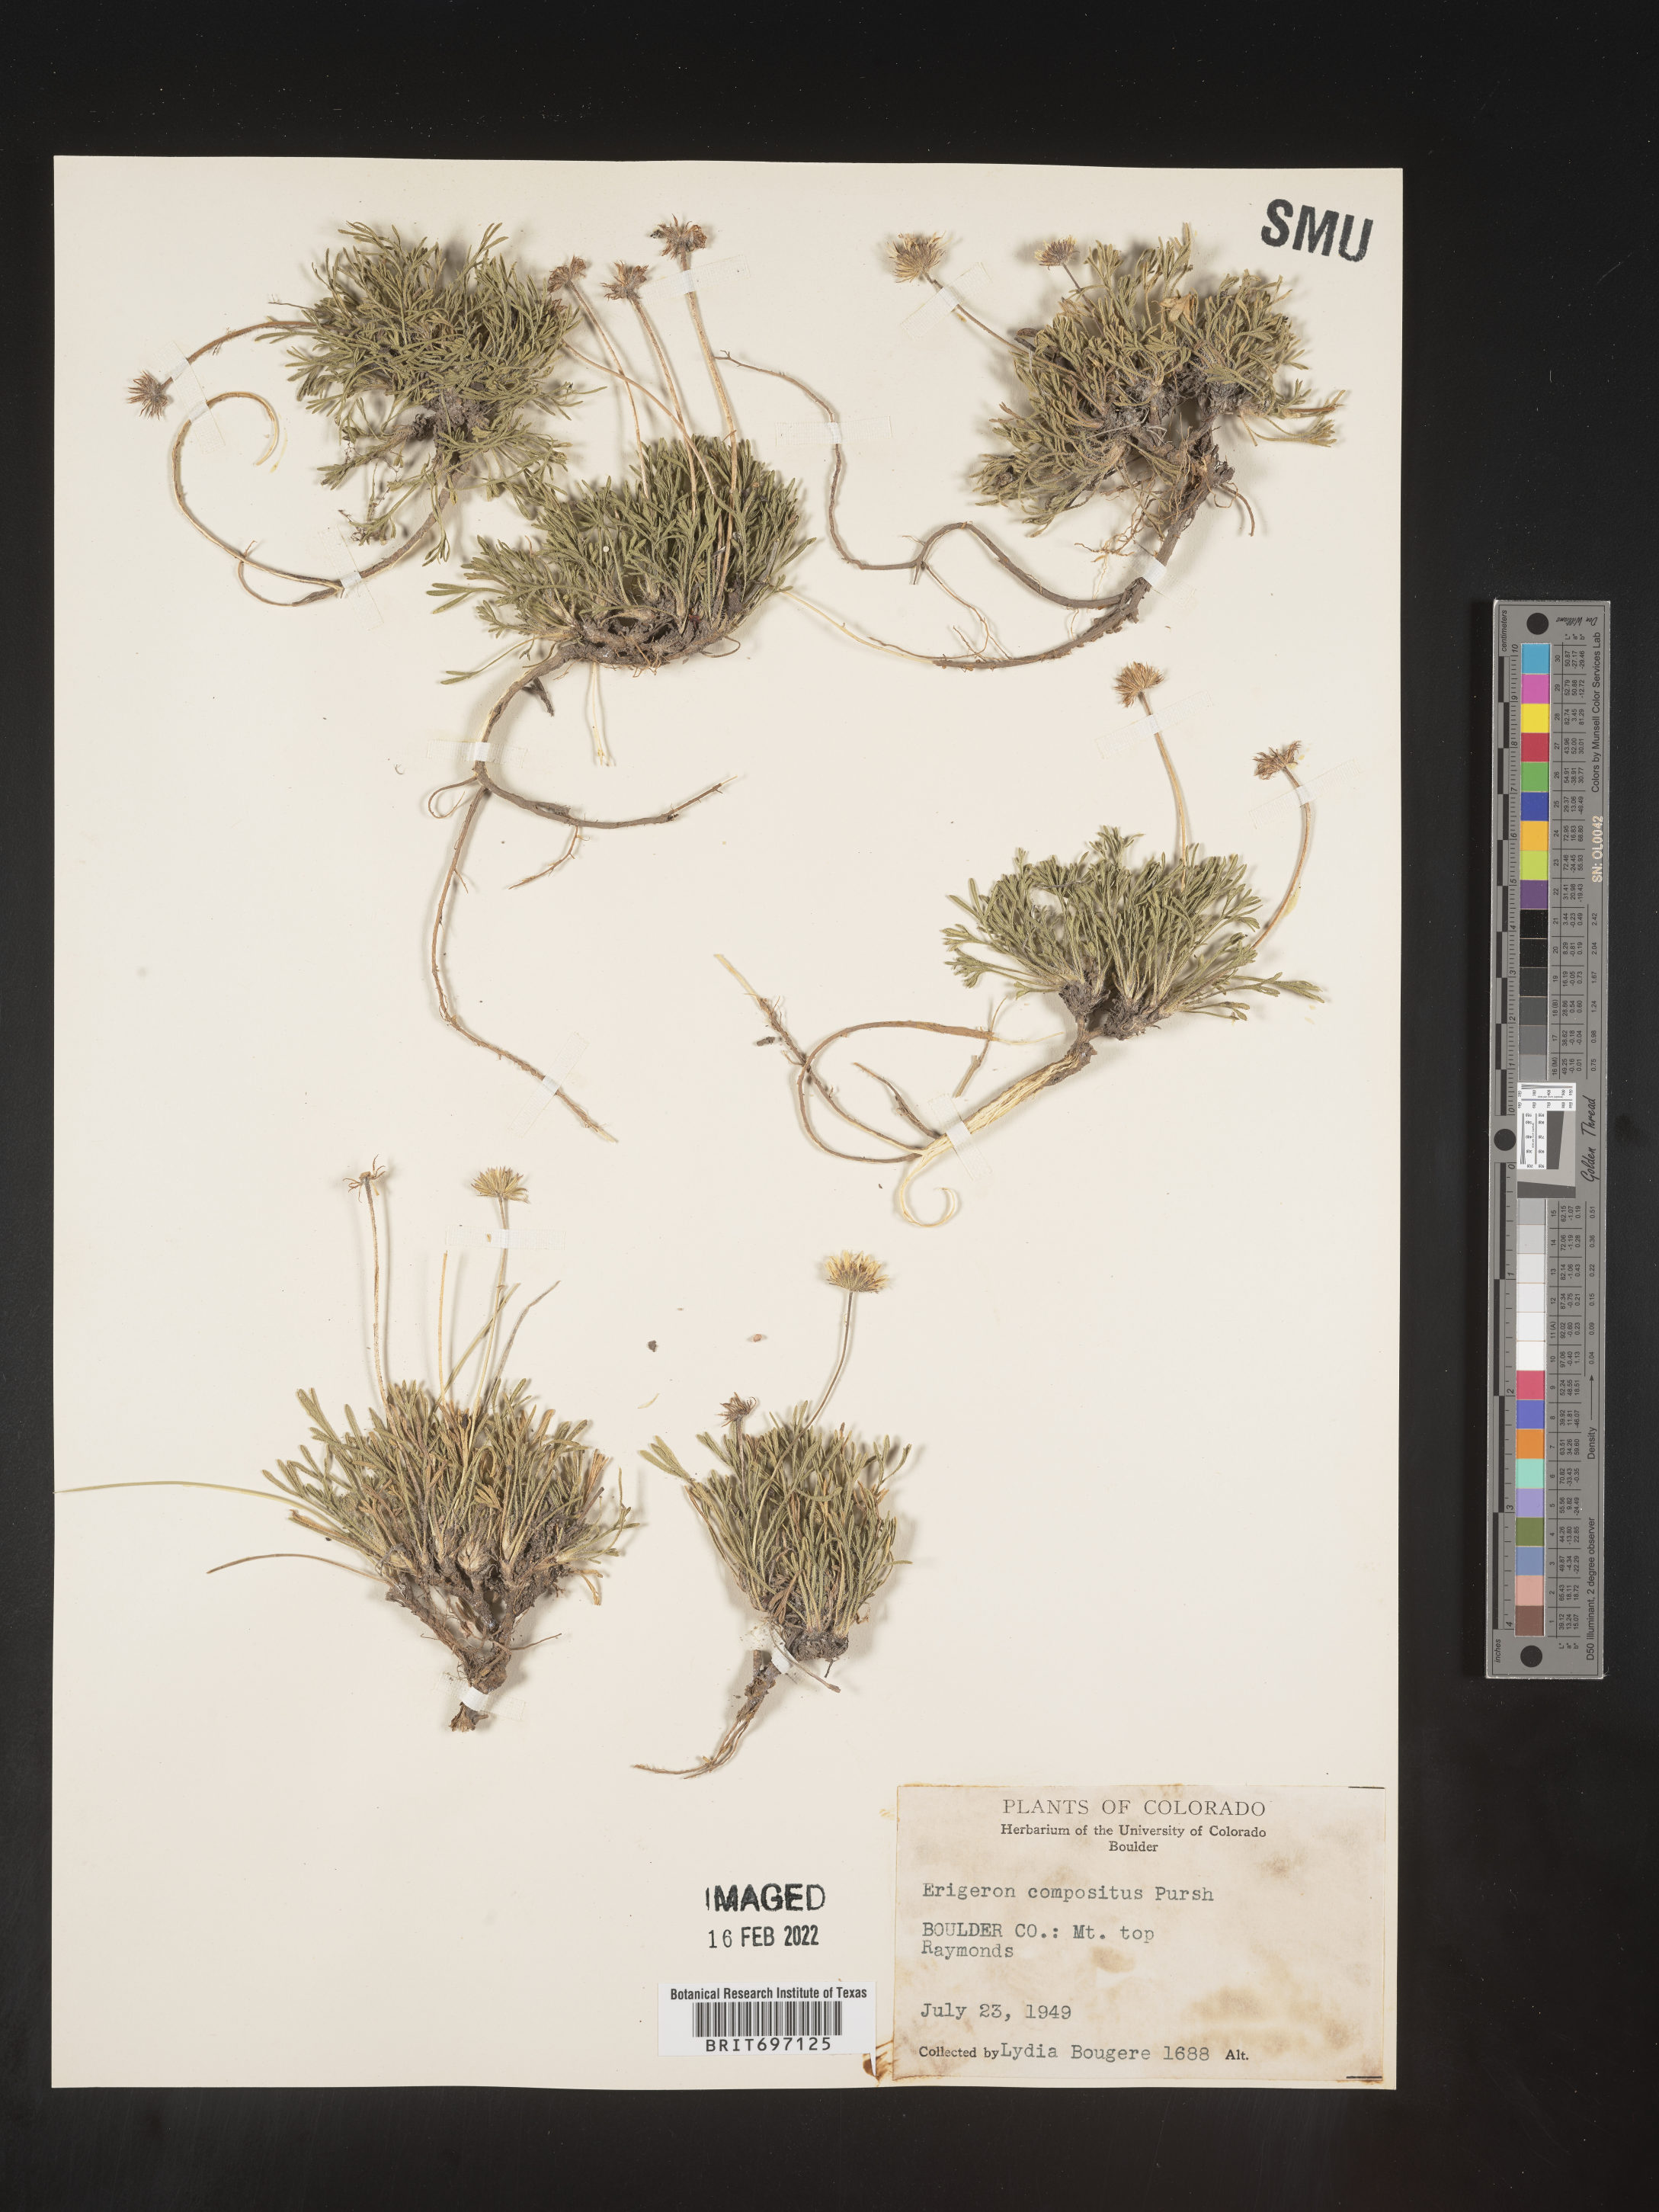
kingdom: Plantae
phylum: Tracheophyta
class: Magnoliopsida
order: Asterales
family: Asteraceae
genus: Erigeron
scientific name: Erigeron compositus
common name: Dwarf mountain fleabane
